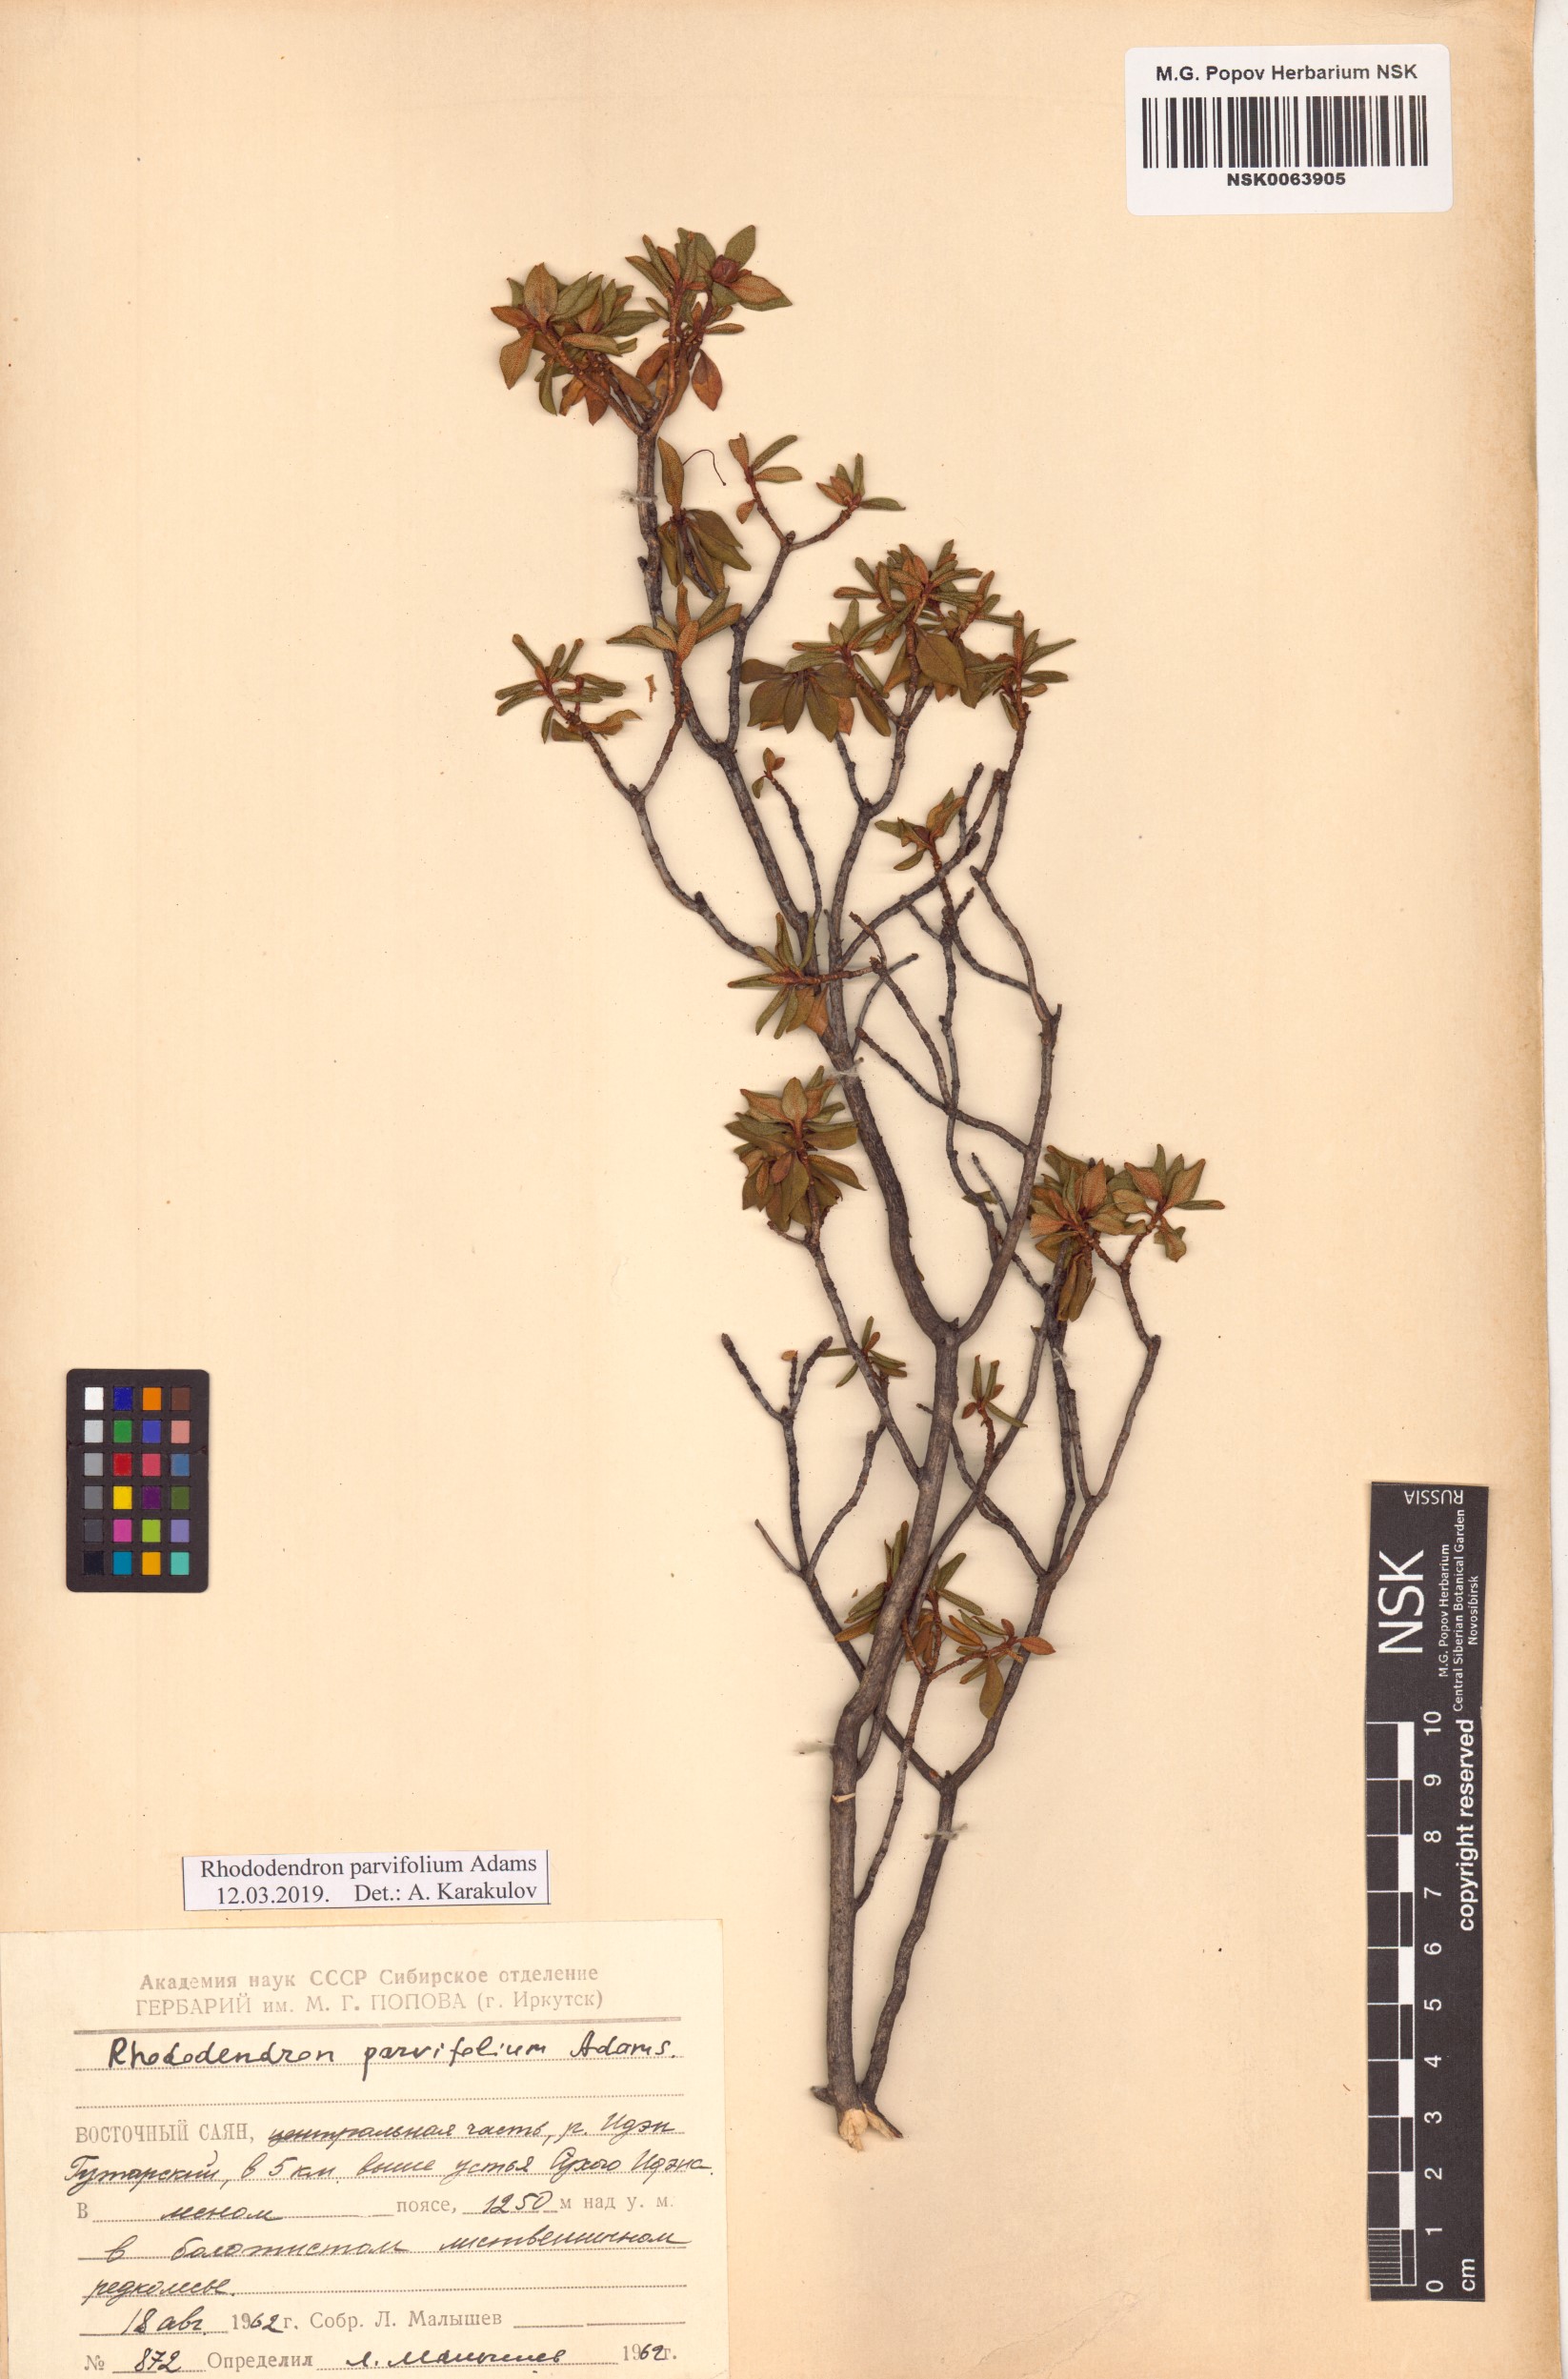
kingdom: Plantae
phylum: Tracheophyta
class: Magnoliopsida
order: Ericales
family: Ericaceae
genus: Rhododendron
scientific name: Rhododendron parvifolium
